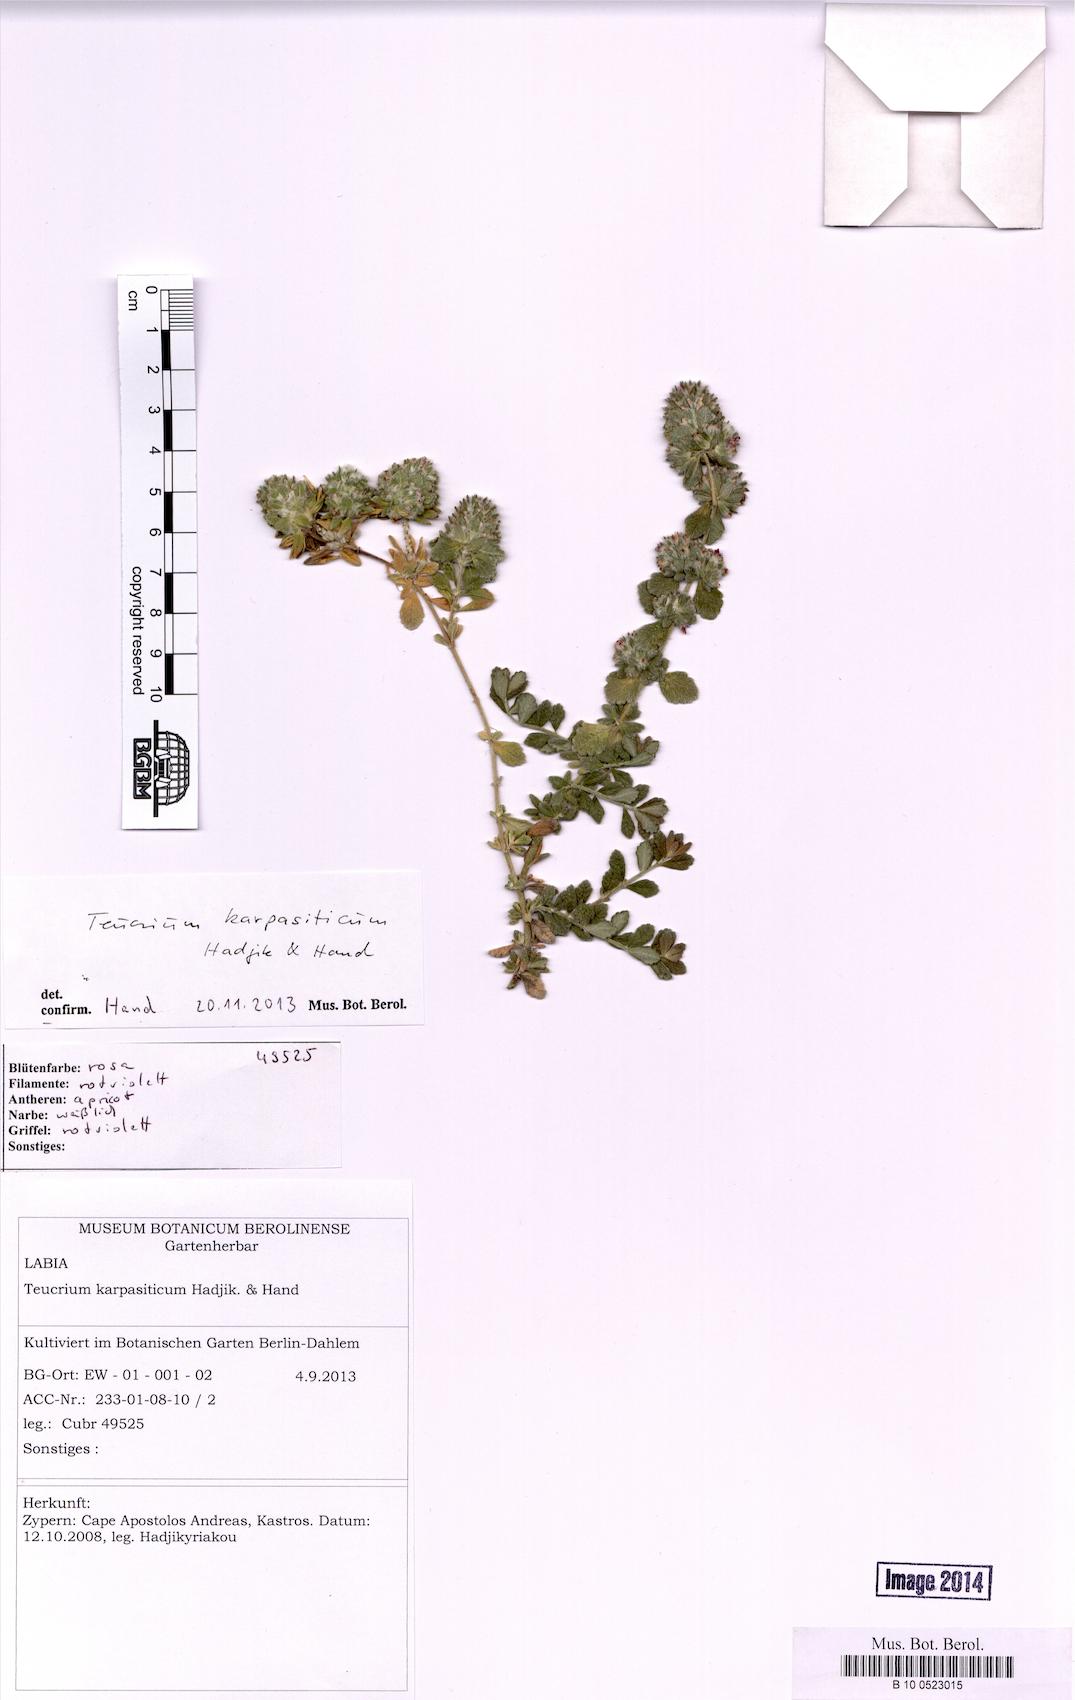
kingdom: Plantae
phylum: Tracheophyta
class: Magnoliopsida
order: Lamiales
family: Lamiaceae
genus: Teucrium
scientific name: Teucrium karpasiticum
